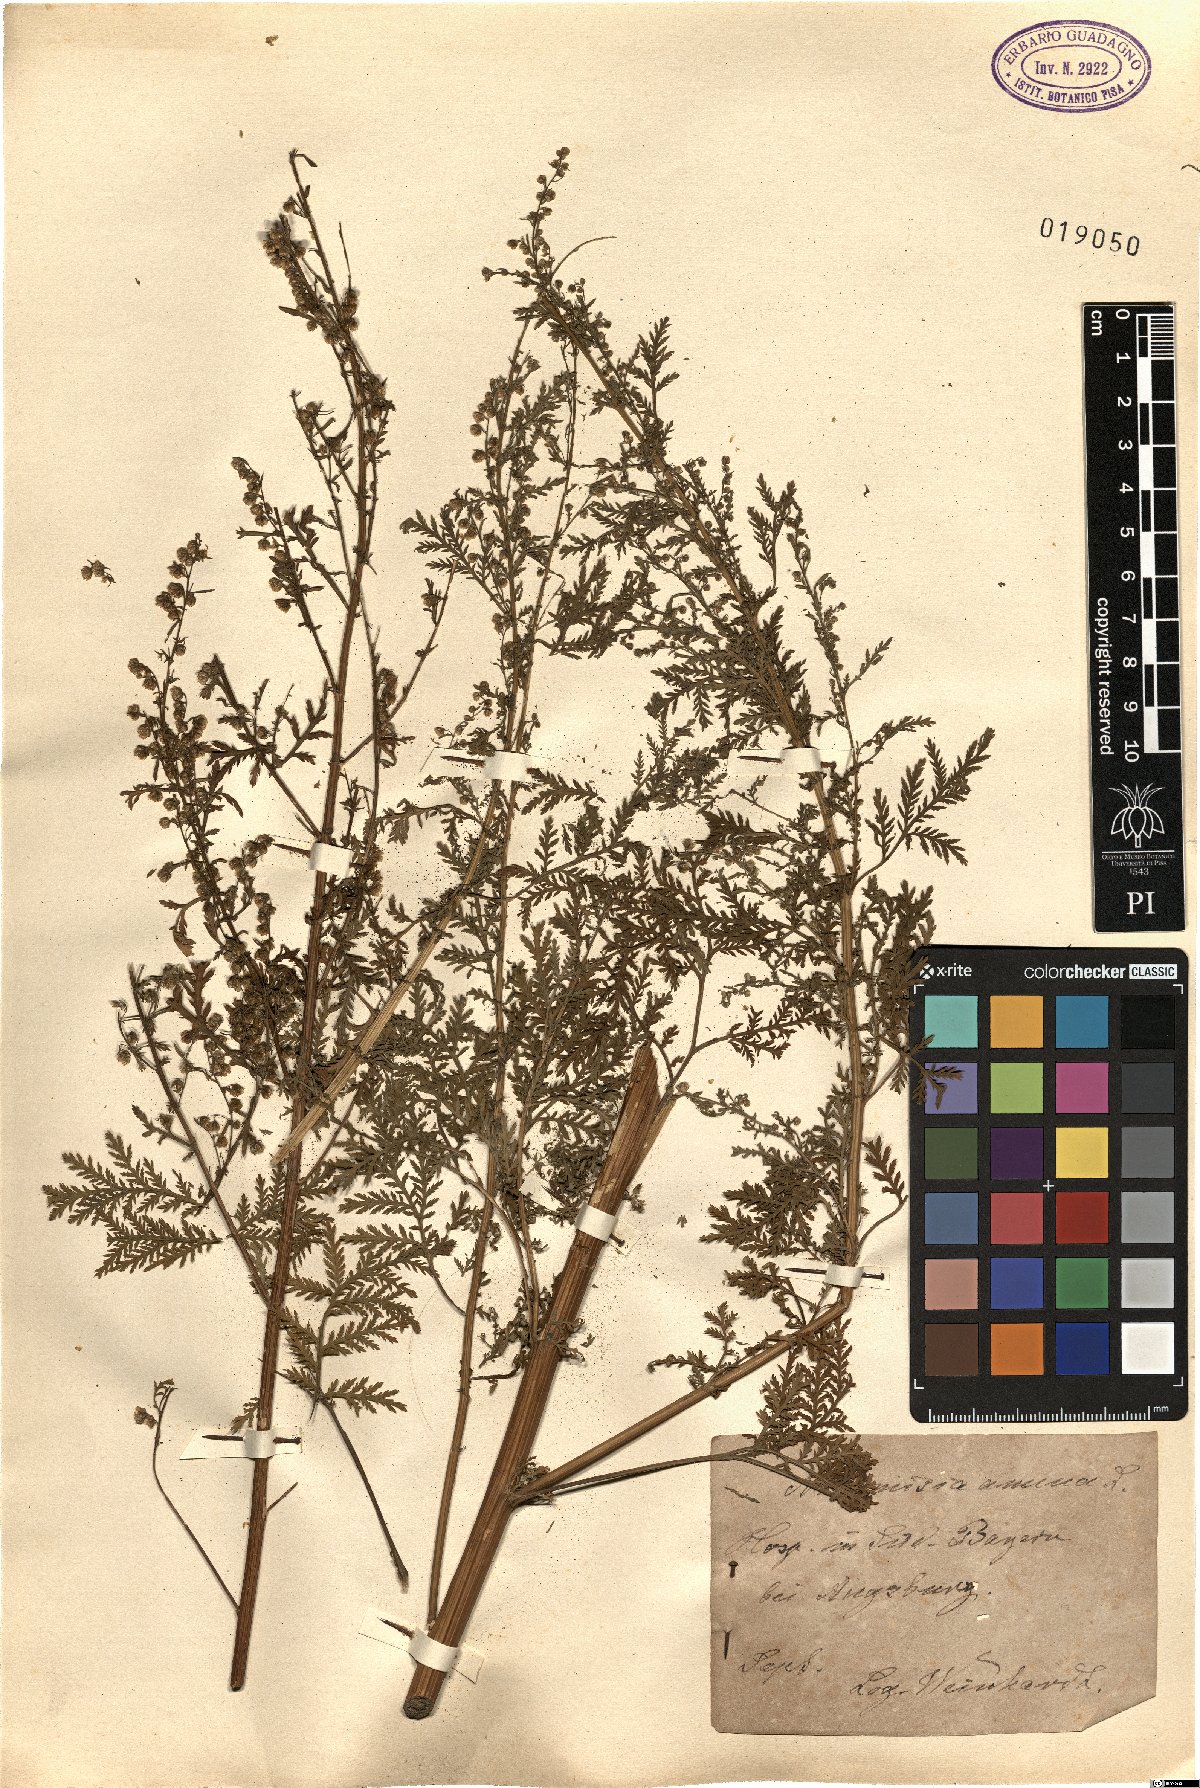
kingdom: Plantae
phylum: Tracheophyta
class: Magnoliopsida
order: Asterales
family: Asteraceae
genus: Artemisia
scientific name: Artemisia annua
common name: Sweet sagewort
